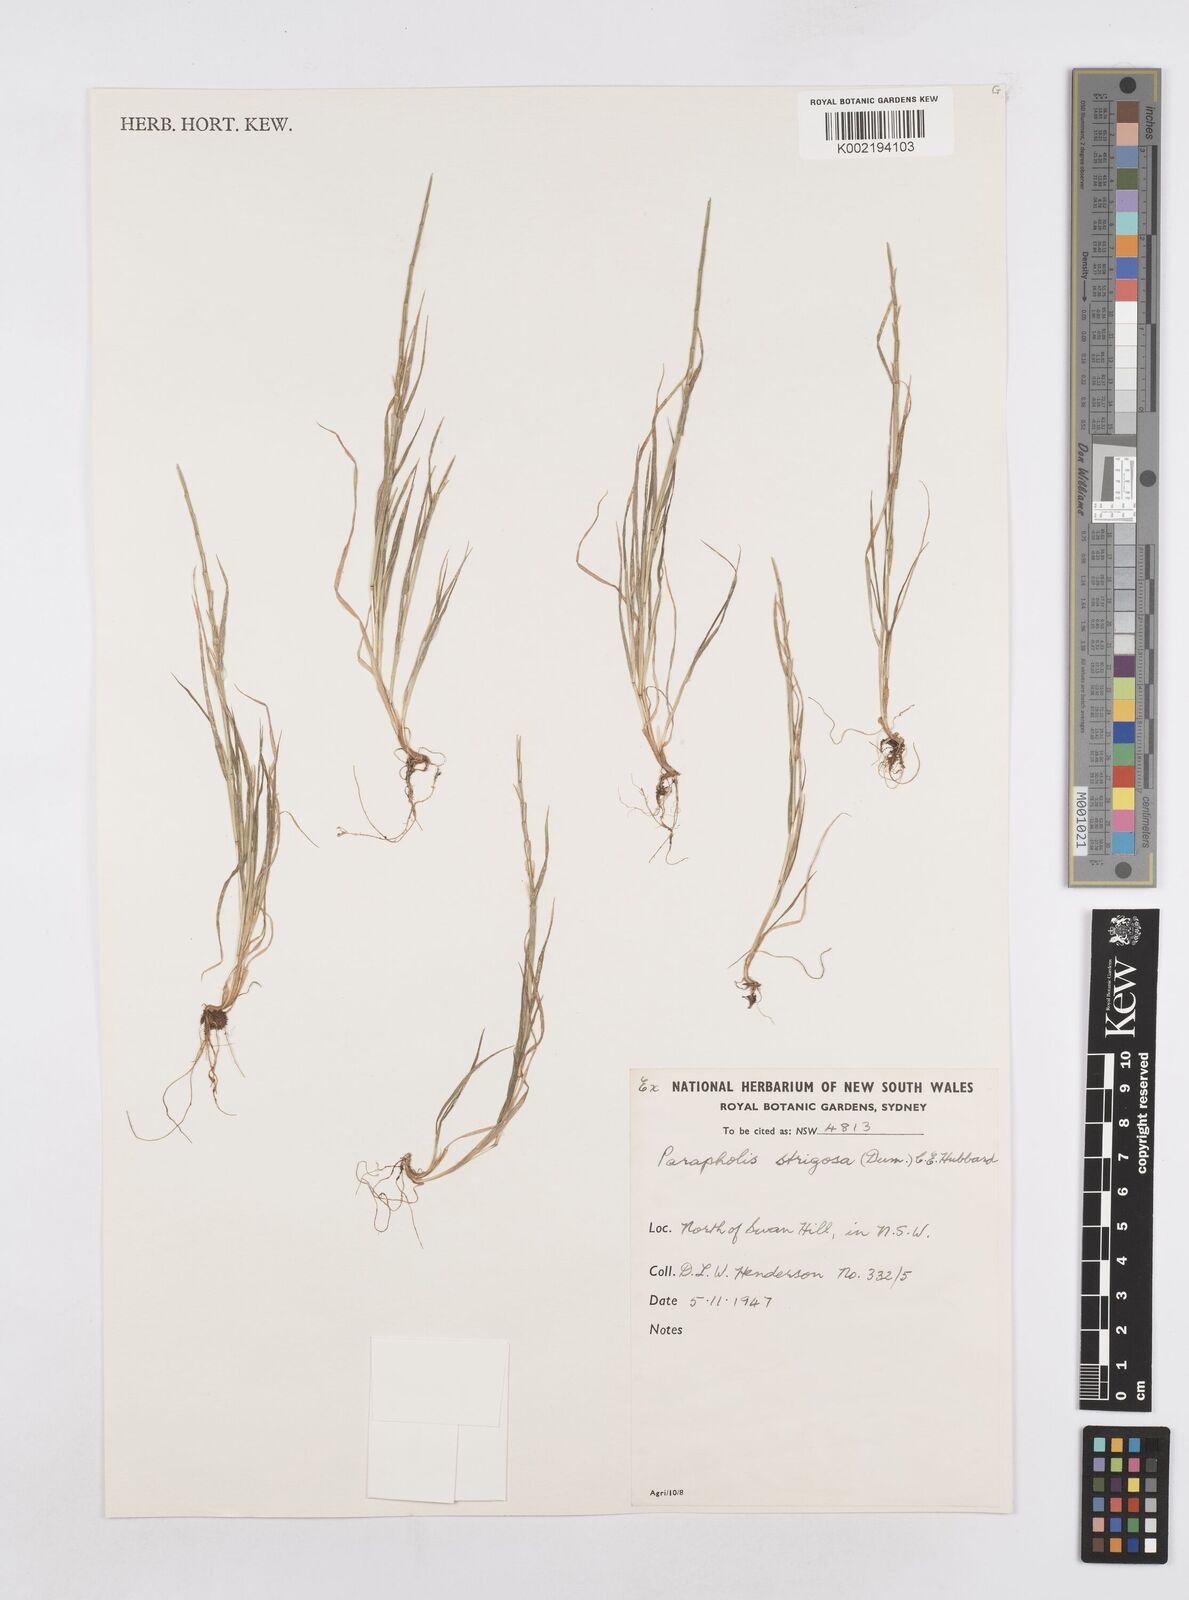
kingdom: Plantae
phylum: Tracheophyta
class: Liliopsida
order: Poales
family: Poaceae
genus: Parapholis
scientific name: Parapholis strigosa
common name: Hard-grass
